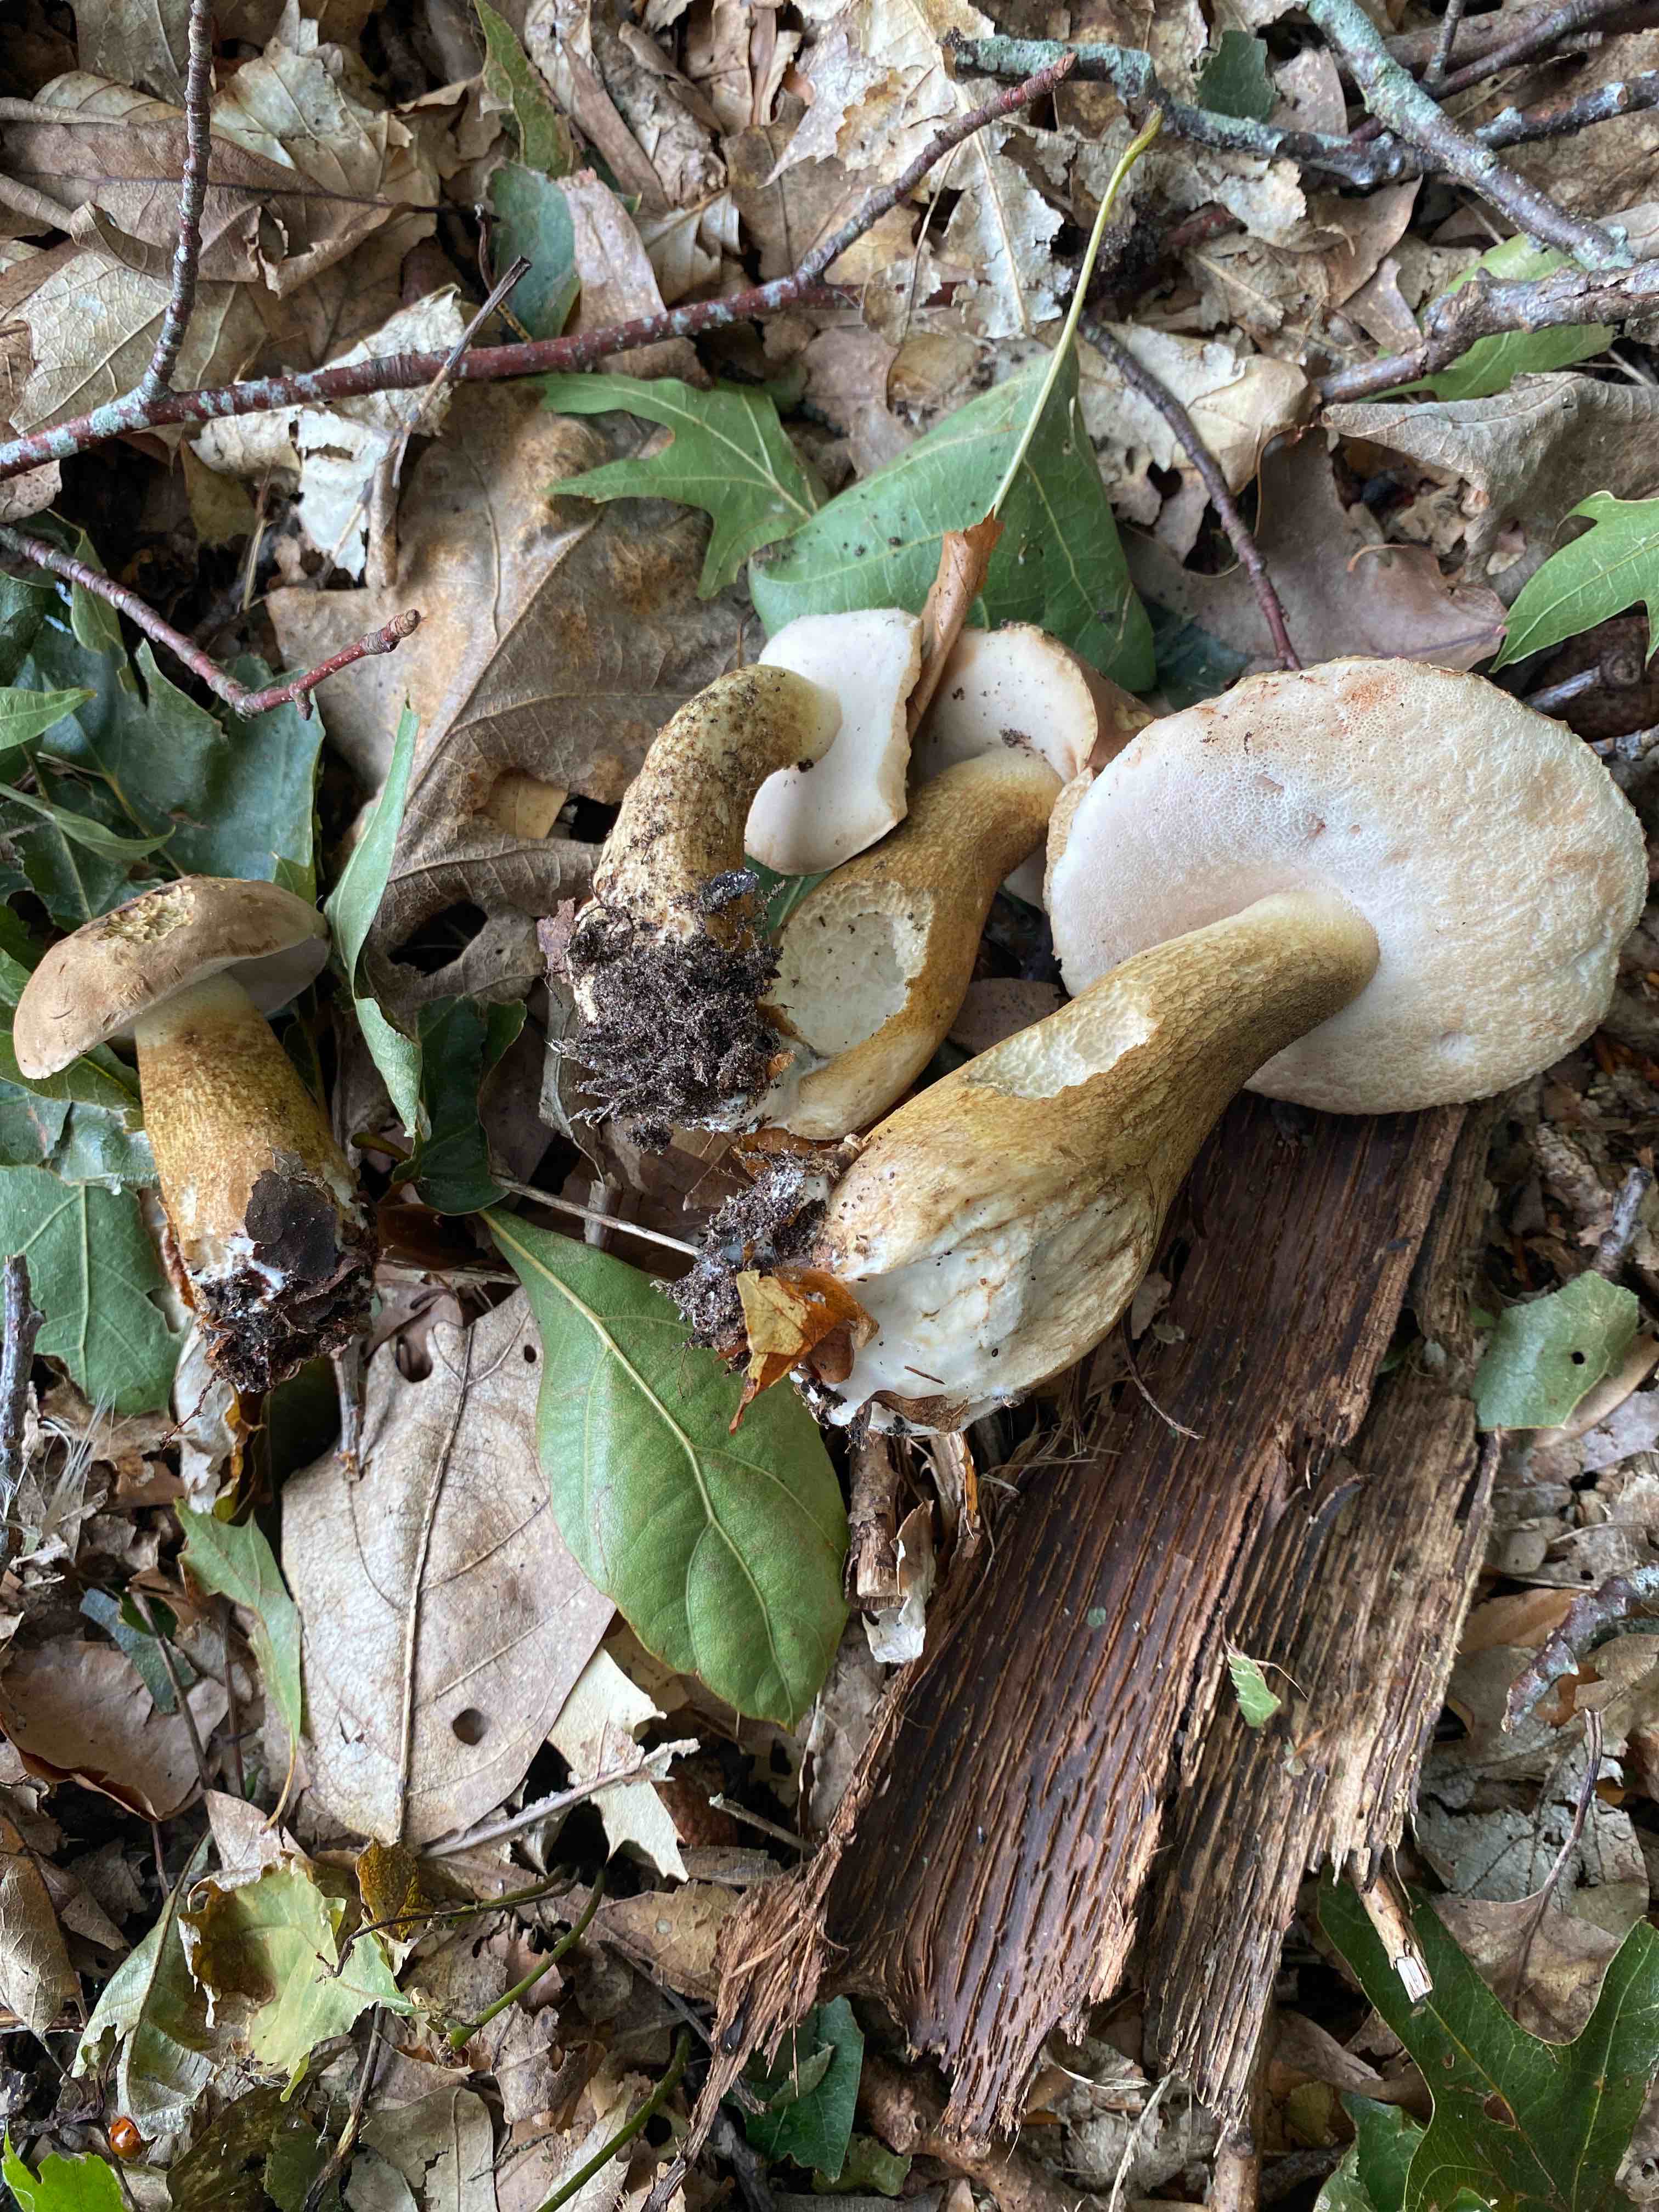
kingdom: Fungi
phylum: Basidiomycota
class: Agaricomycetes
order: Boletales
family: Boletaceae
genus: Tylopilus
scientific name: Tylopilus felleus
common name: galderørhat
